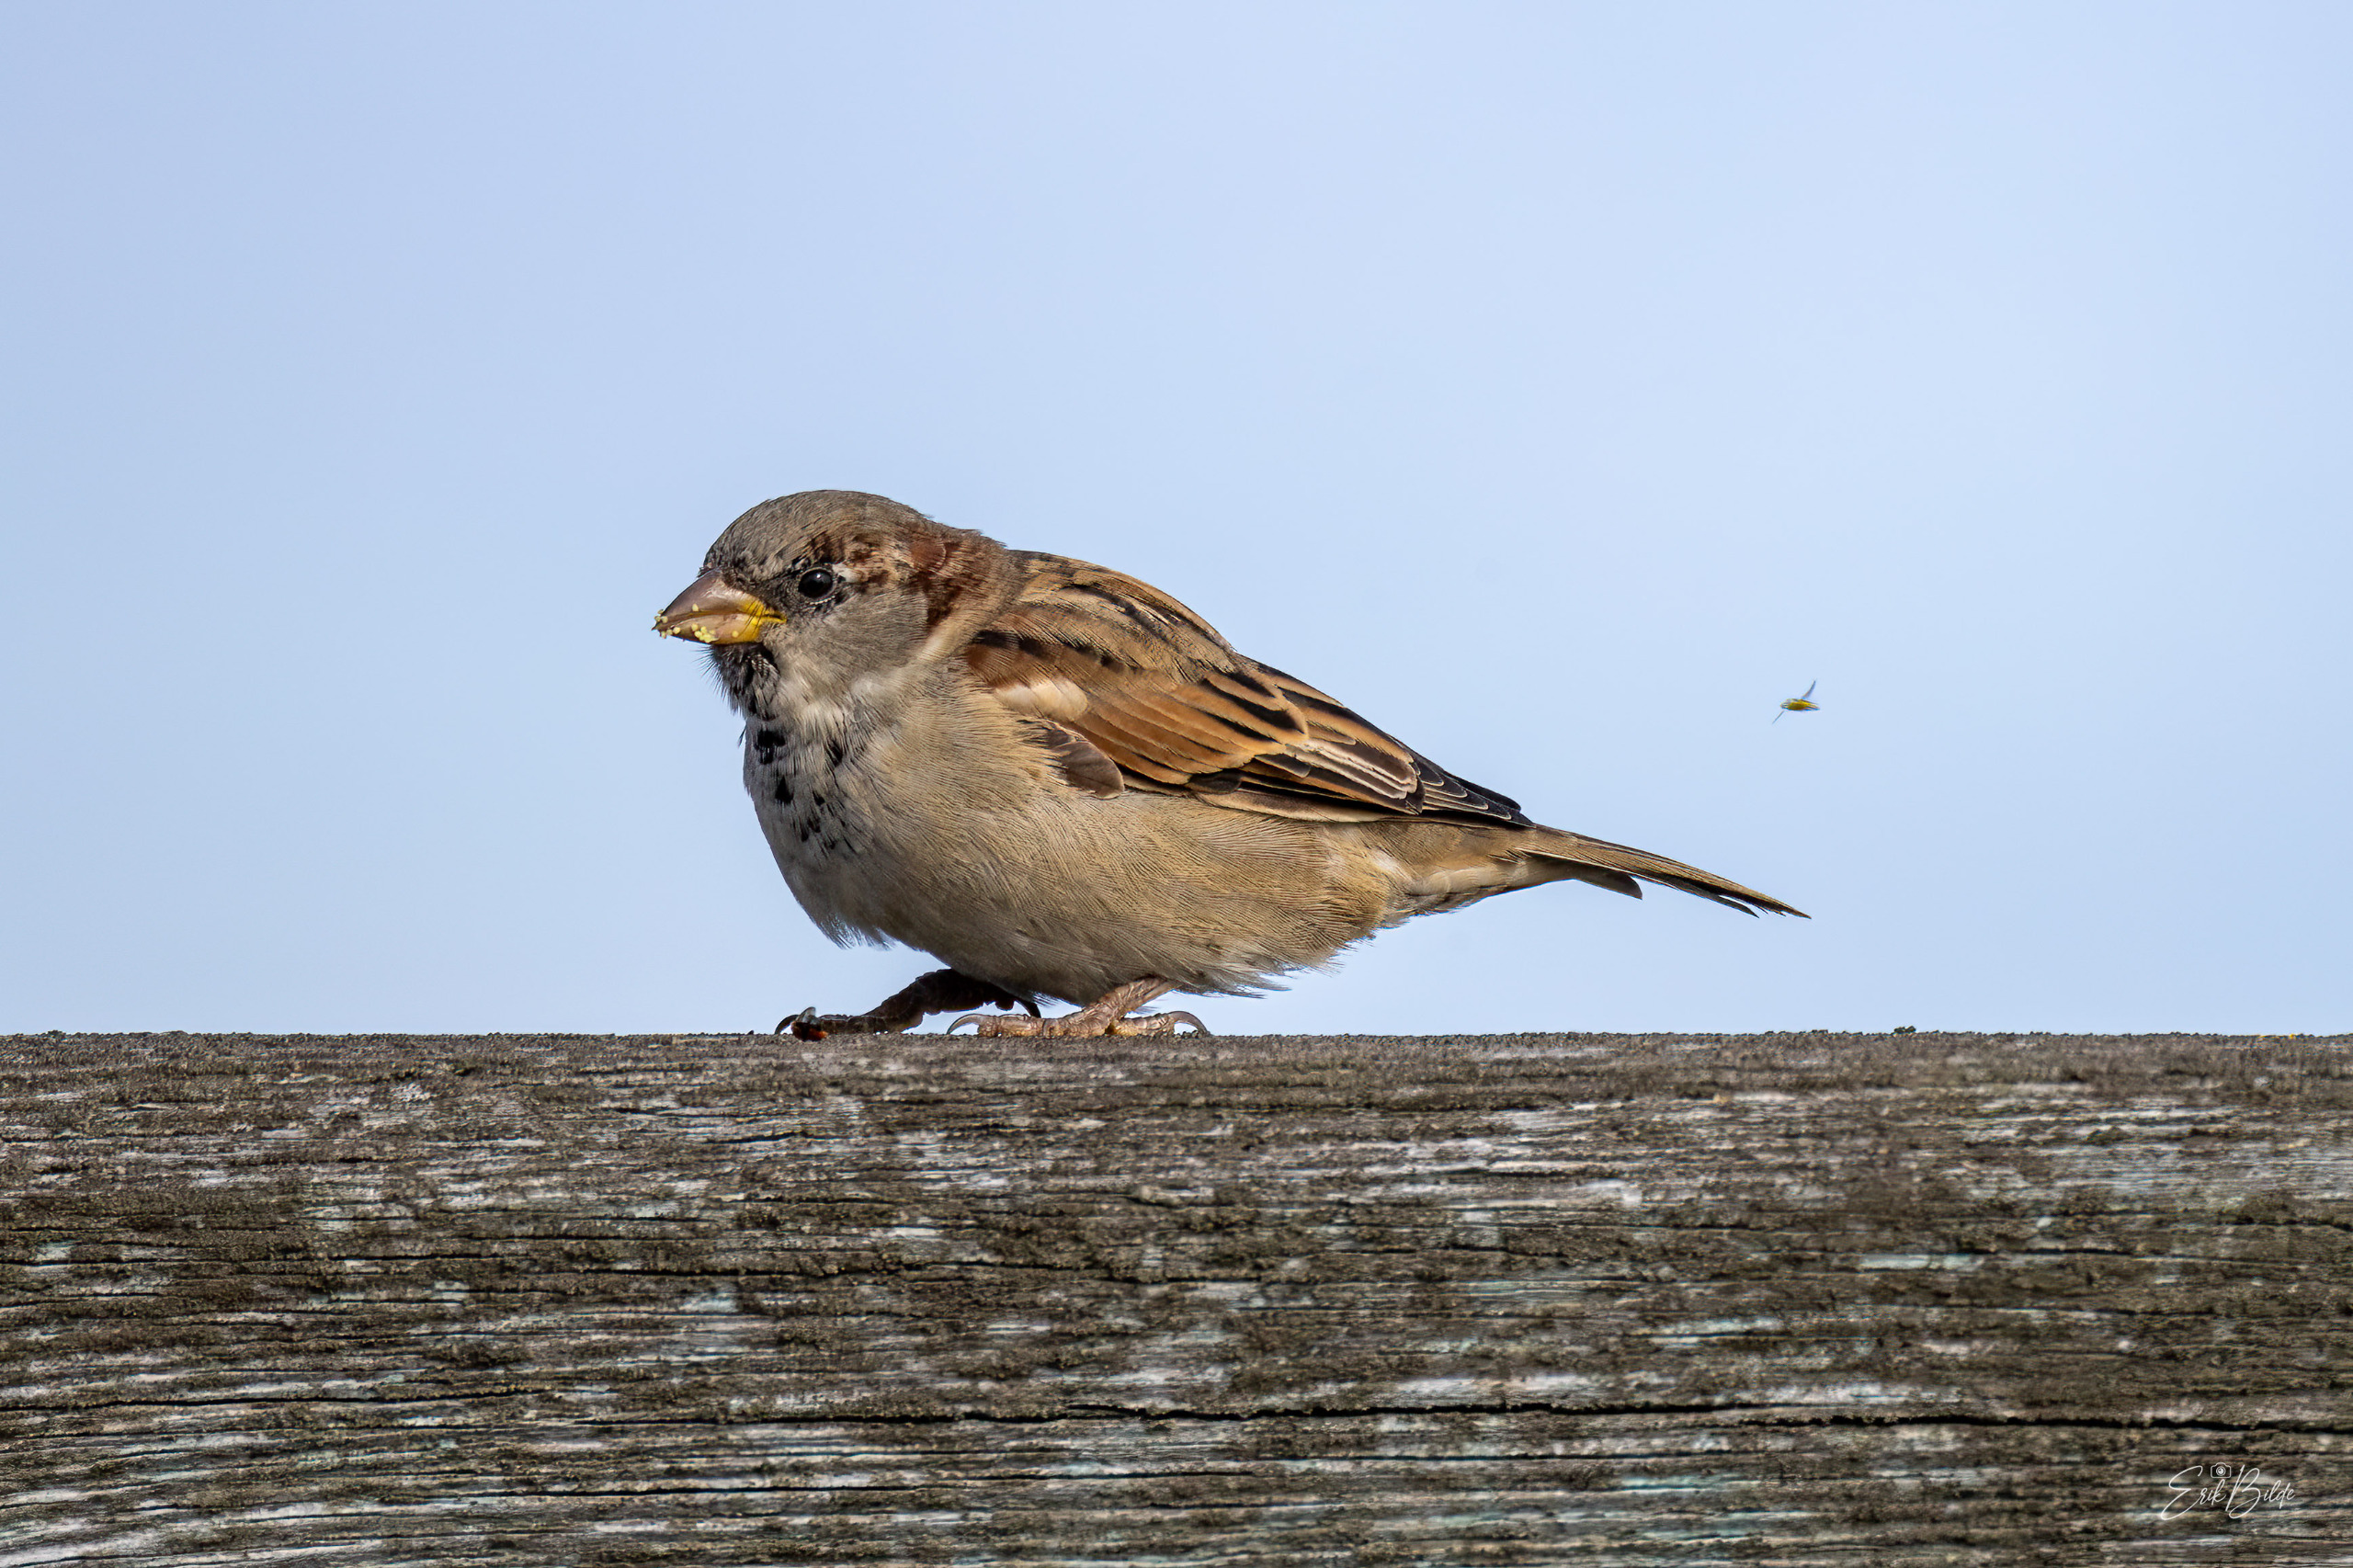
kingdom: Animalia
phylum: Chordata
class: Aves
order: Passeriformes
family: Passeridae
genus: Passer
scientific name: Passer domesticus
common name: Gråspurv
